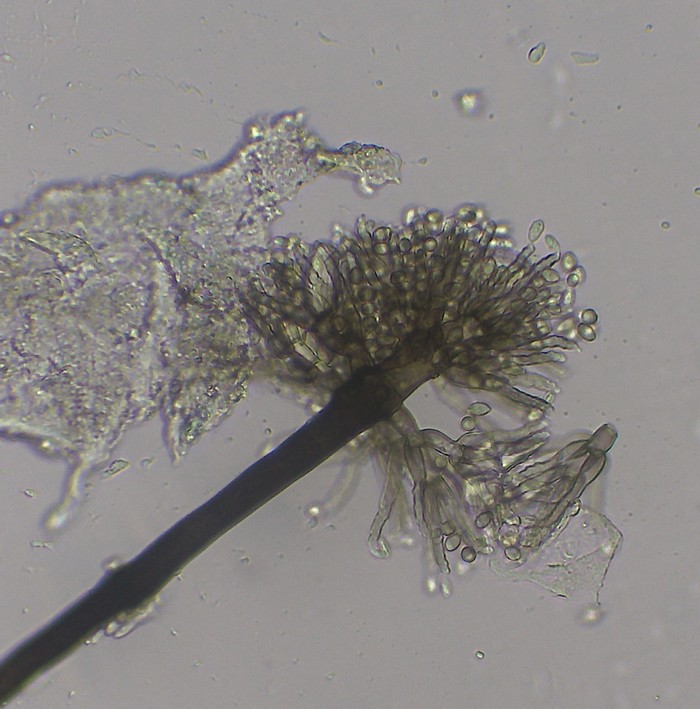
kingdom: Fungi
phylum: Ascomycota
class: Pezizomycetes
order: Pezizales
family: Chorioactidaceae
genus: Verticicladium
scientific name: Verticicladium
